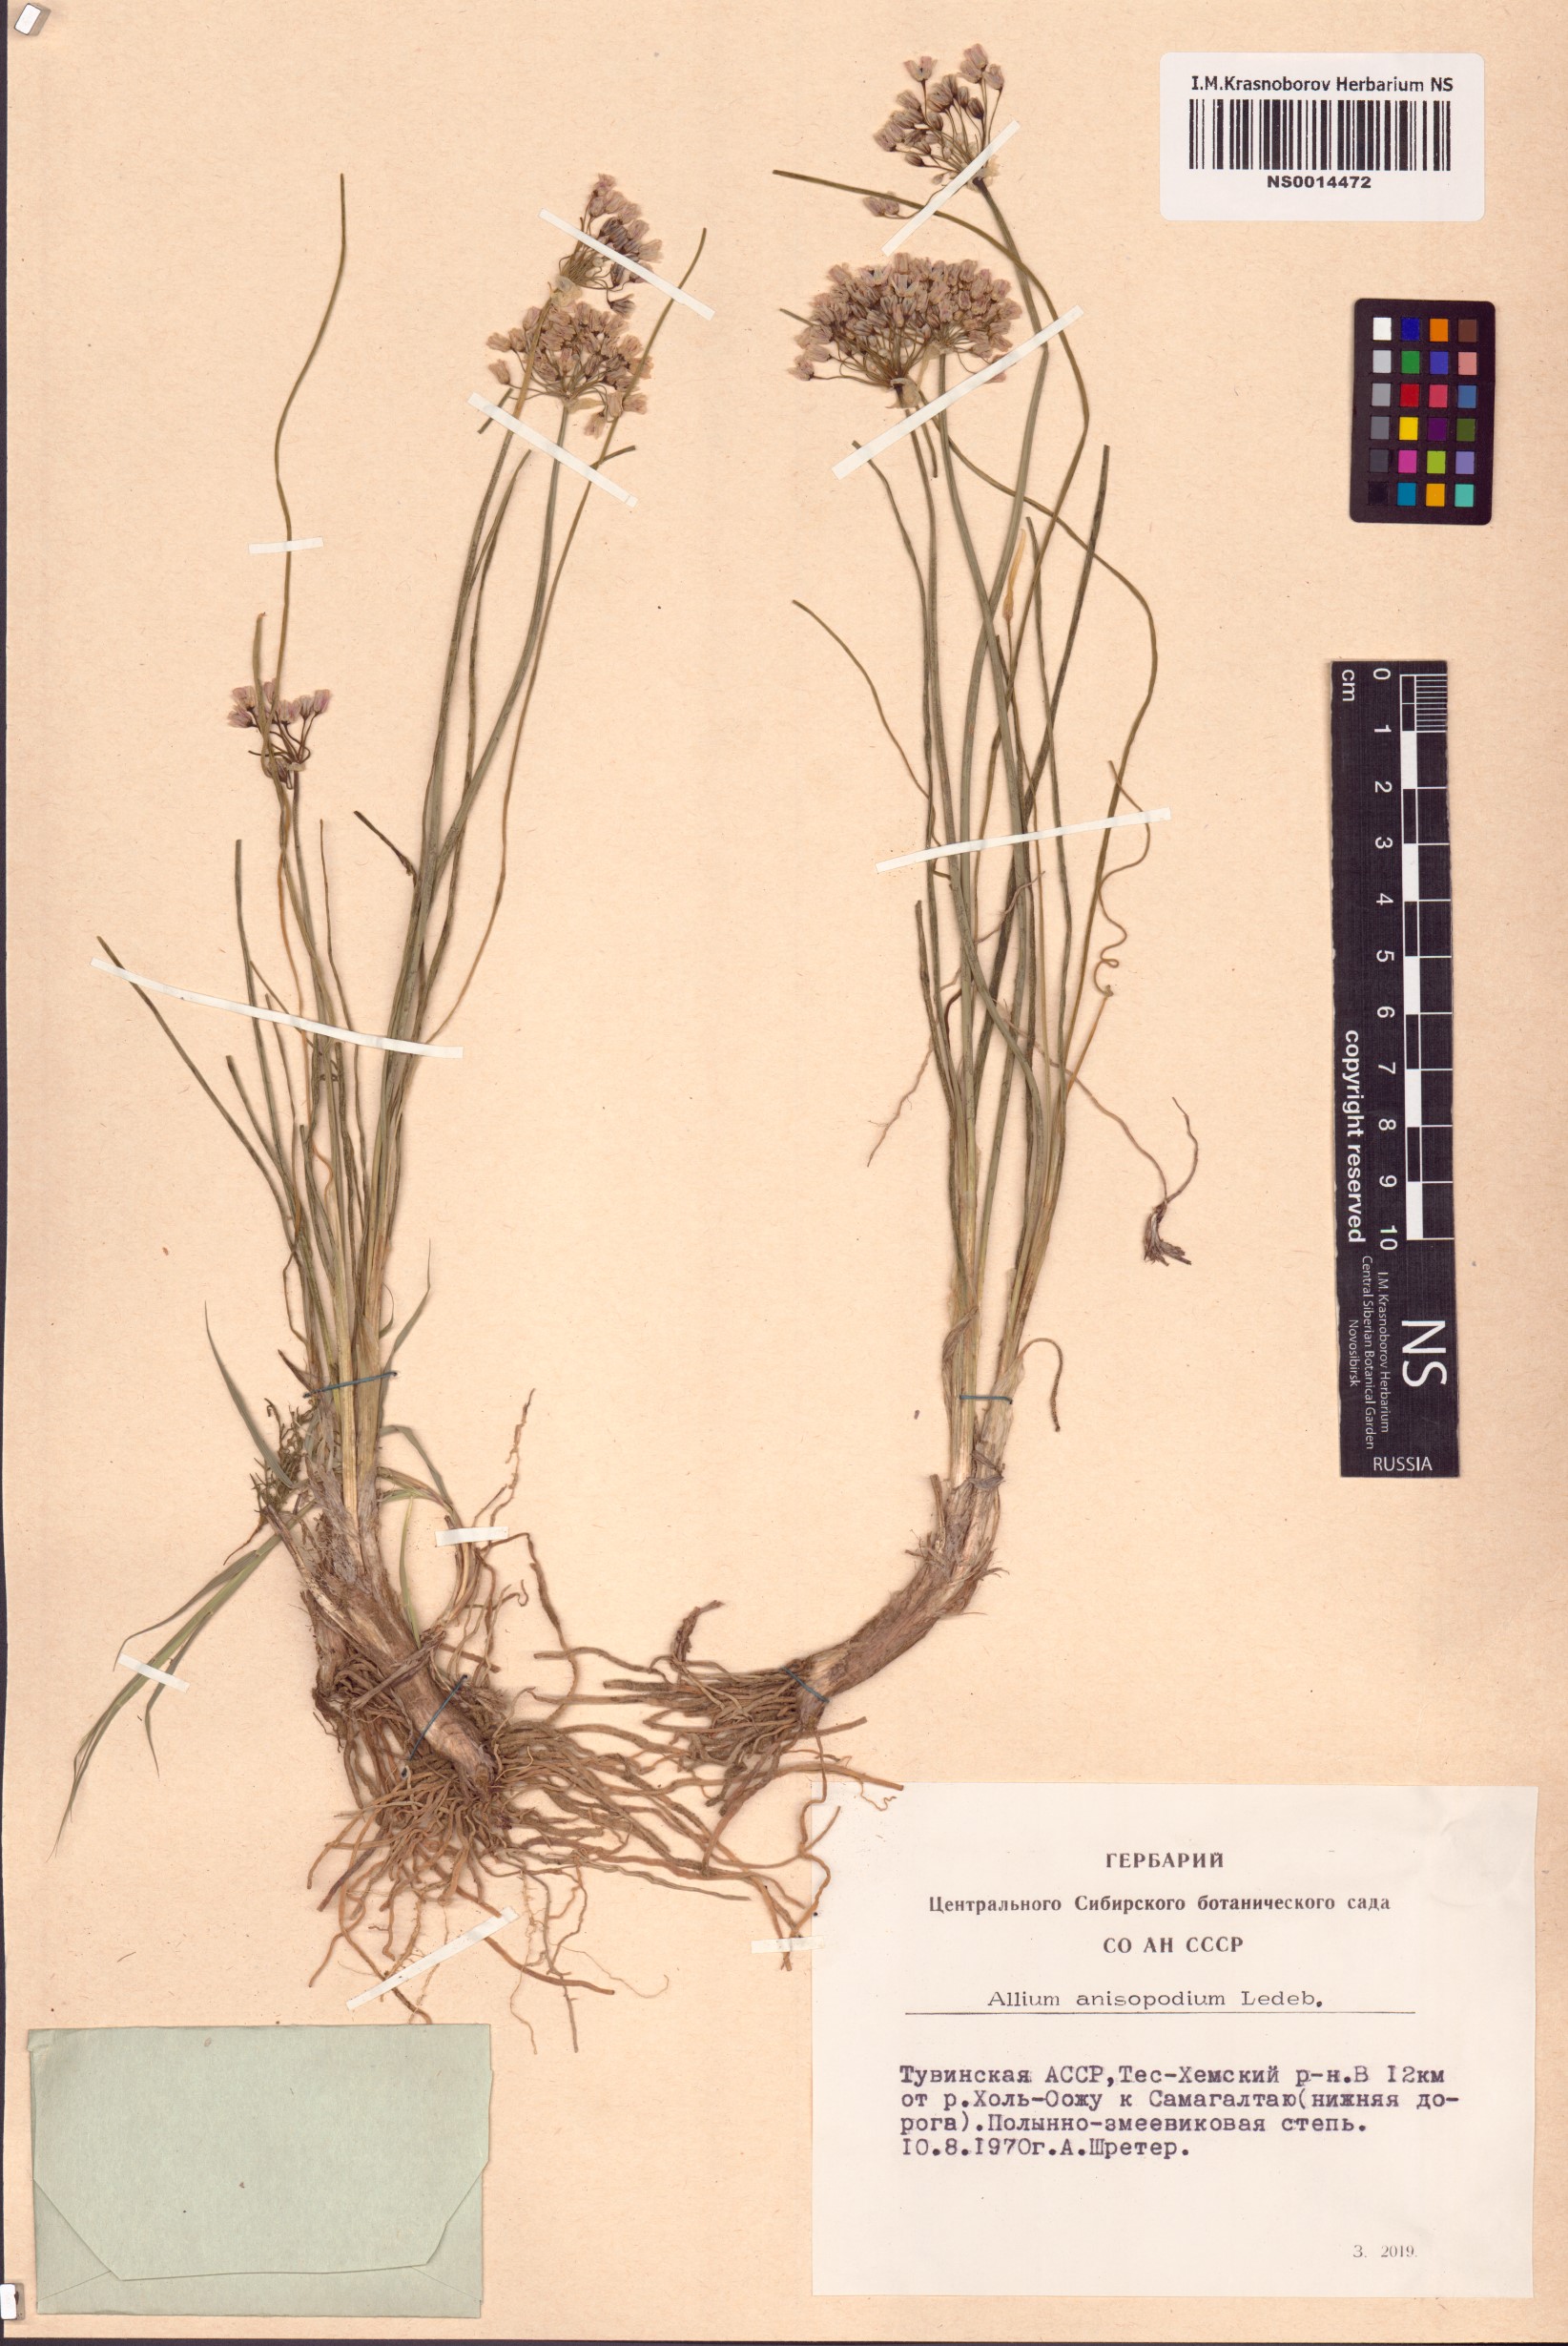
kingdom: Plantae
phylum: Tracheophyta
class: Liliopsida
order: Asparagales
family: Amaryllidaceae
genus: Allium
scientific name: Allium anisopodium
